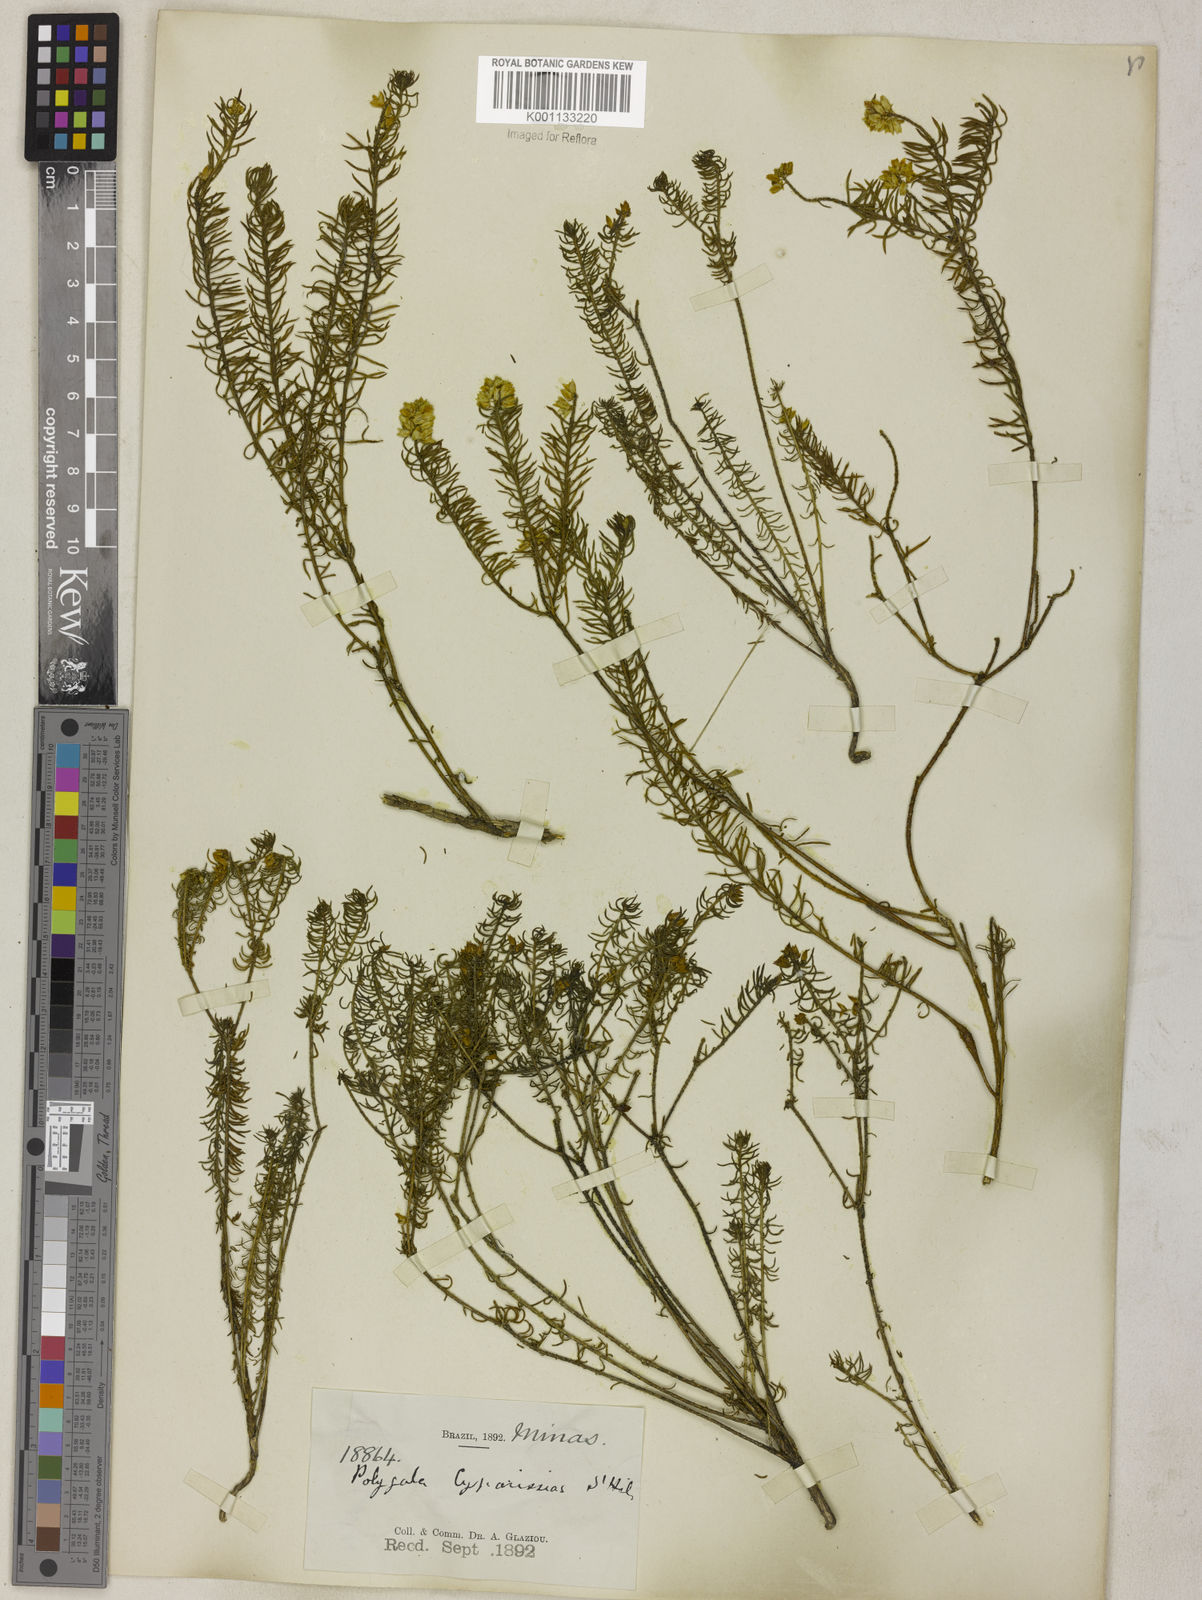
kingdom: Plantae
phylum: Tracheophyta
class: Magnoliopsida
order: Fabales
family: Polygalaceae
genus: Polygala
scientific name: Polygala cyparissias
